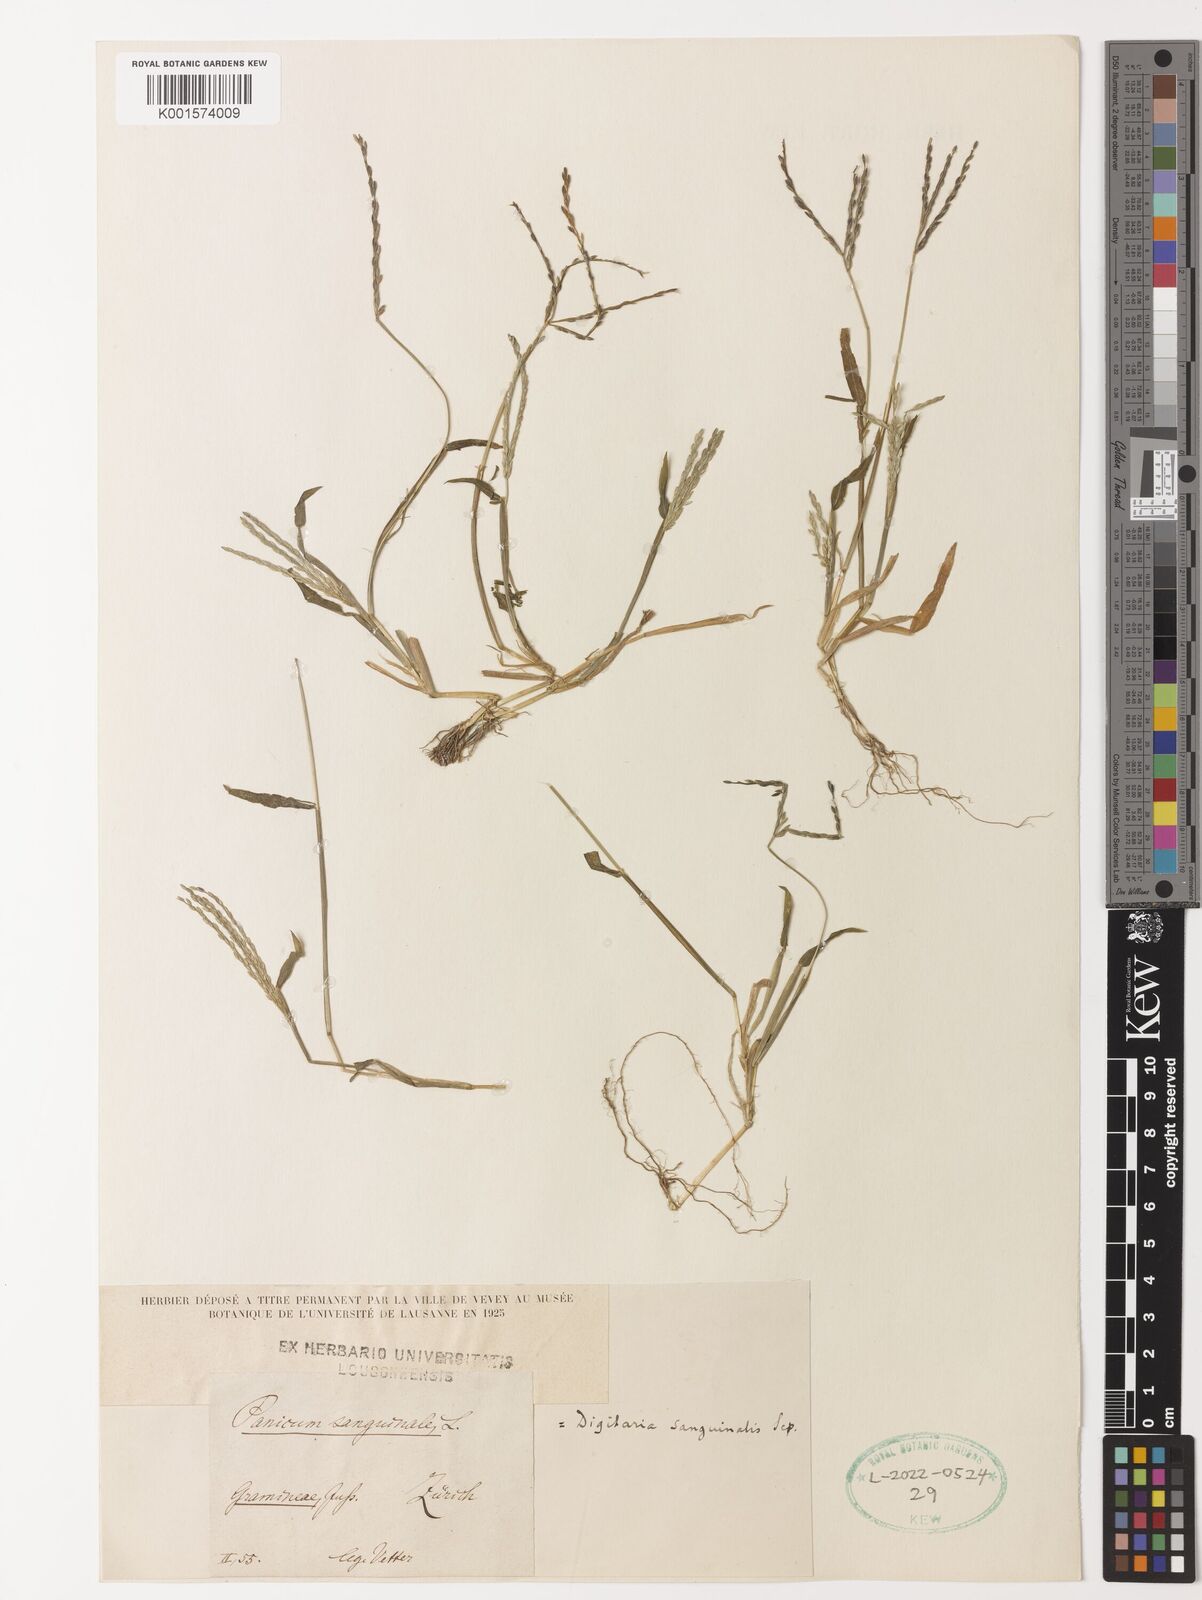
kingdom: Plantae
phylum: Tracheophyta
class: Liliopsida
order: Poales
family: Poaceae
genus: Digitaria
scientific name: Digitaria sanguinalis
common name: Hairy crabgrass
